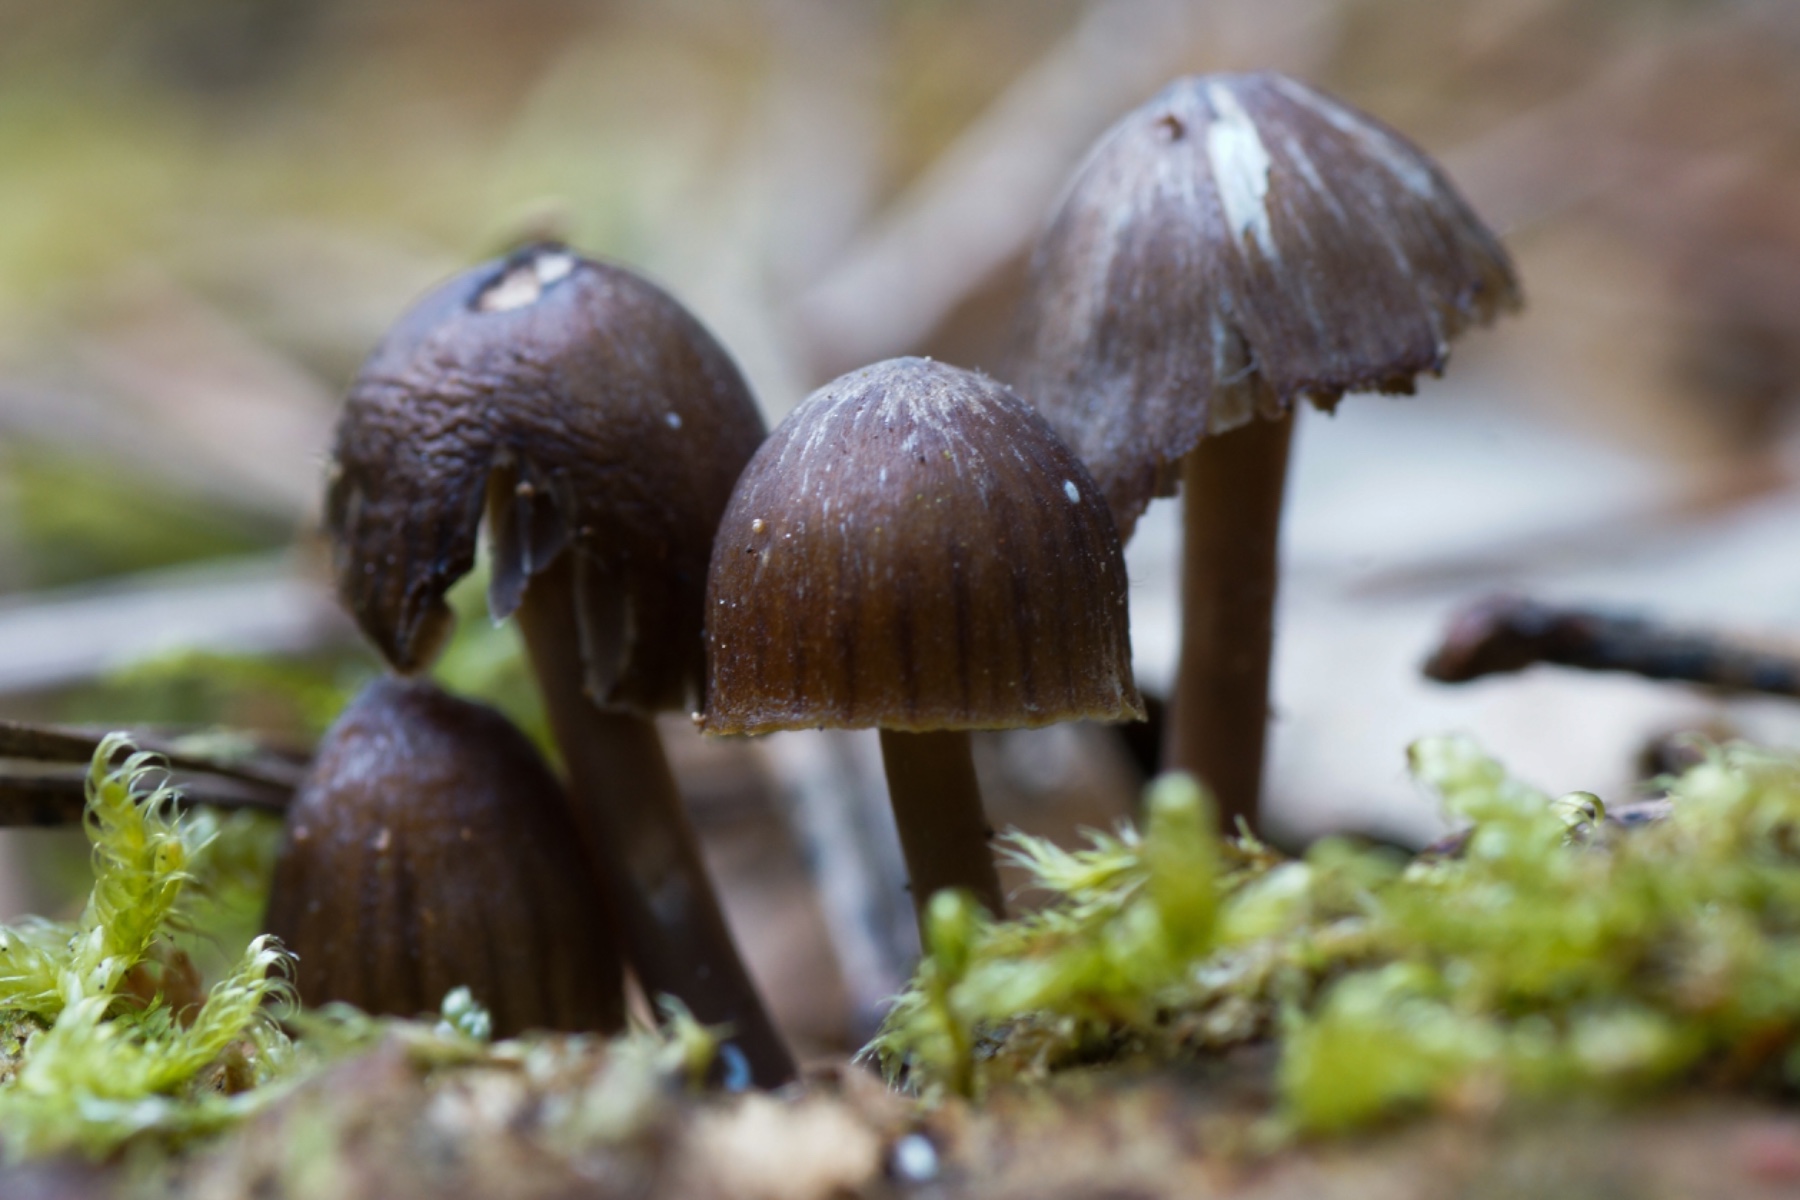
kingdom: Fungi
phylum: Basidiomycota
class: Agaricomycetes
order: Agaricales
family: Mycenaceae
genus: Mycena
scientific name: Mycena
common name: huesvamp
